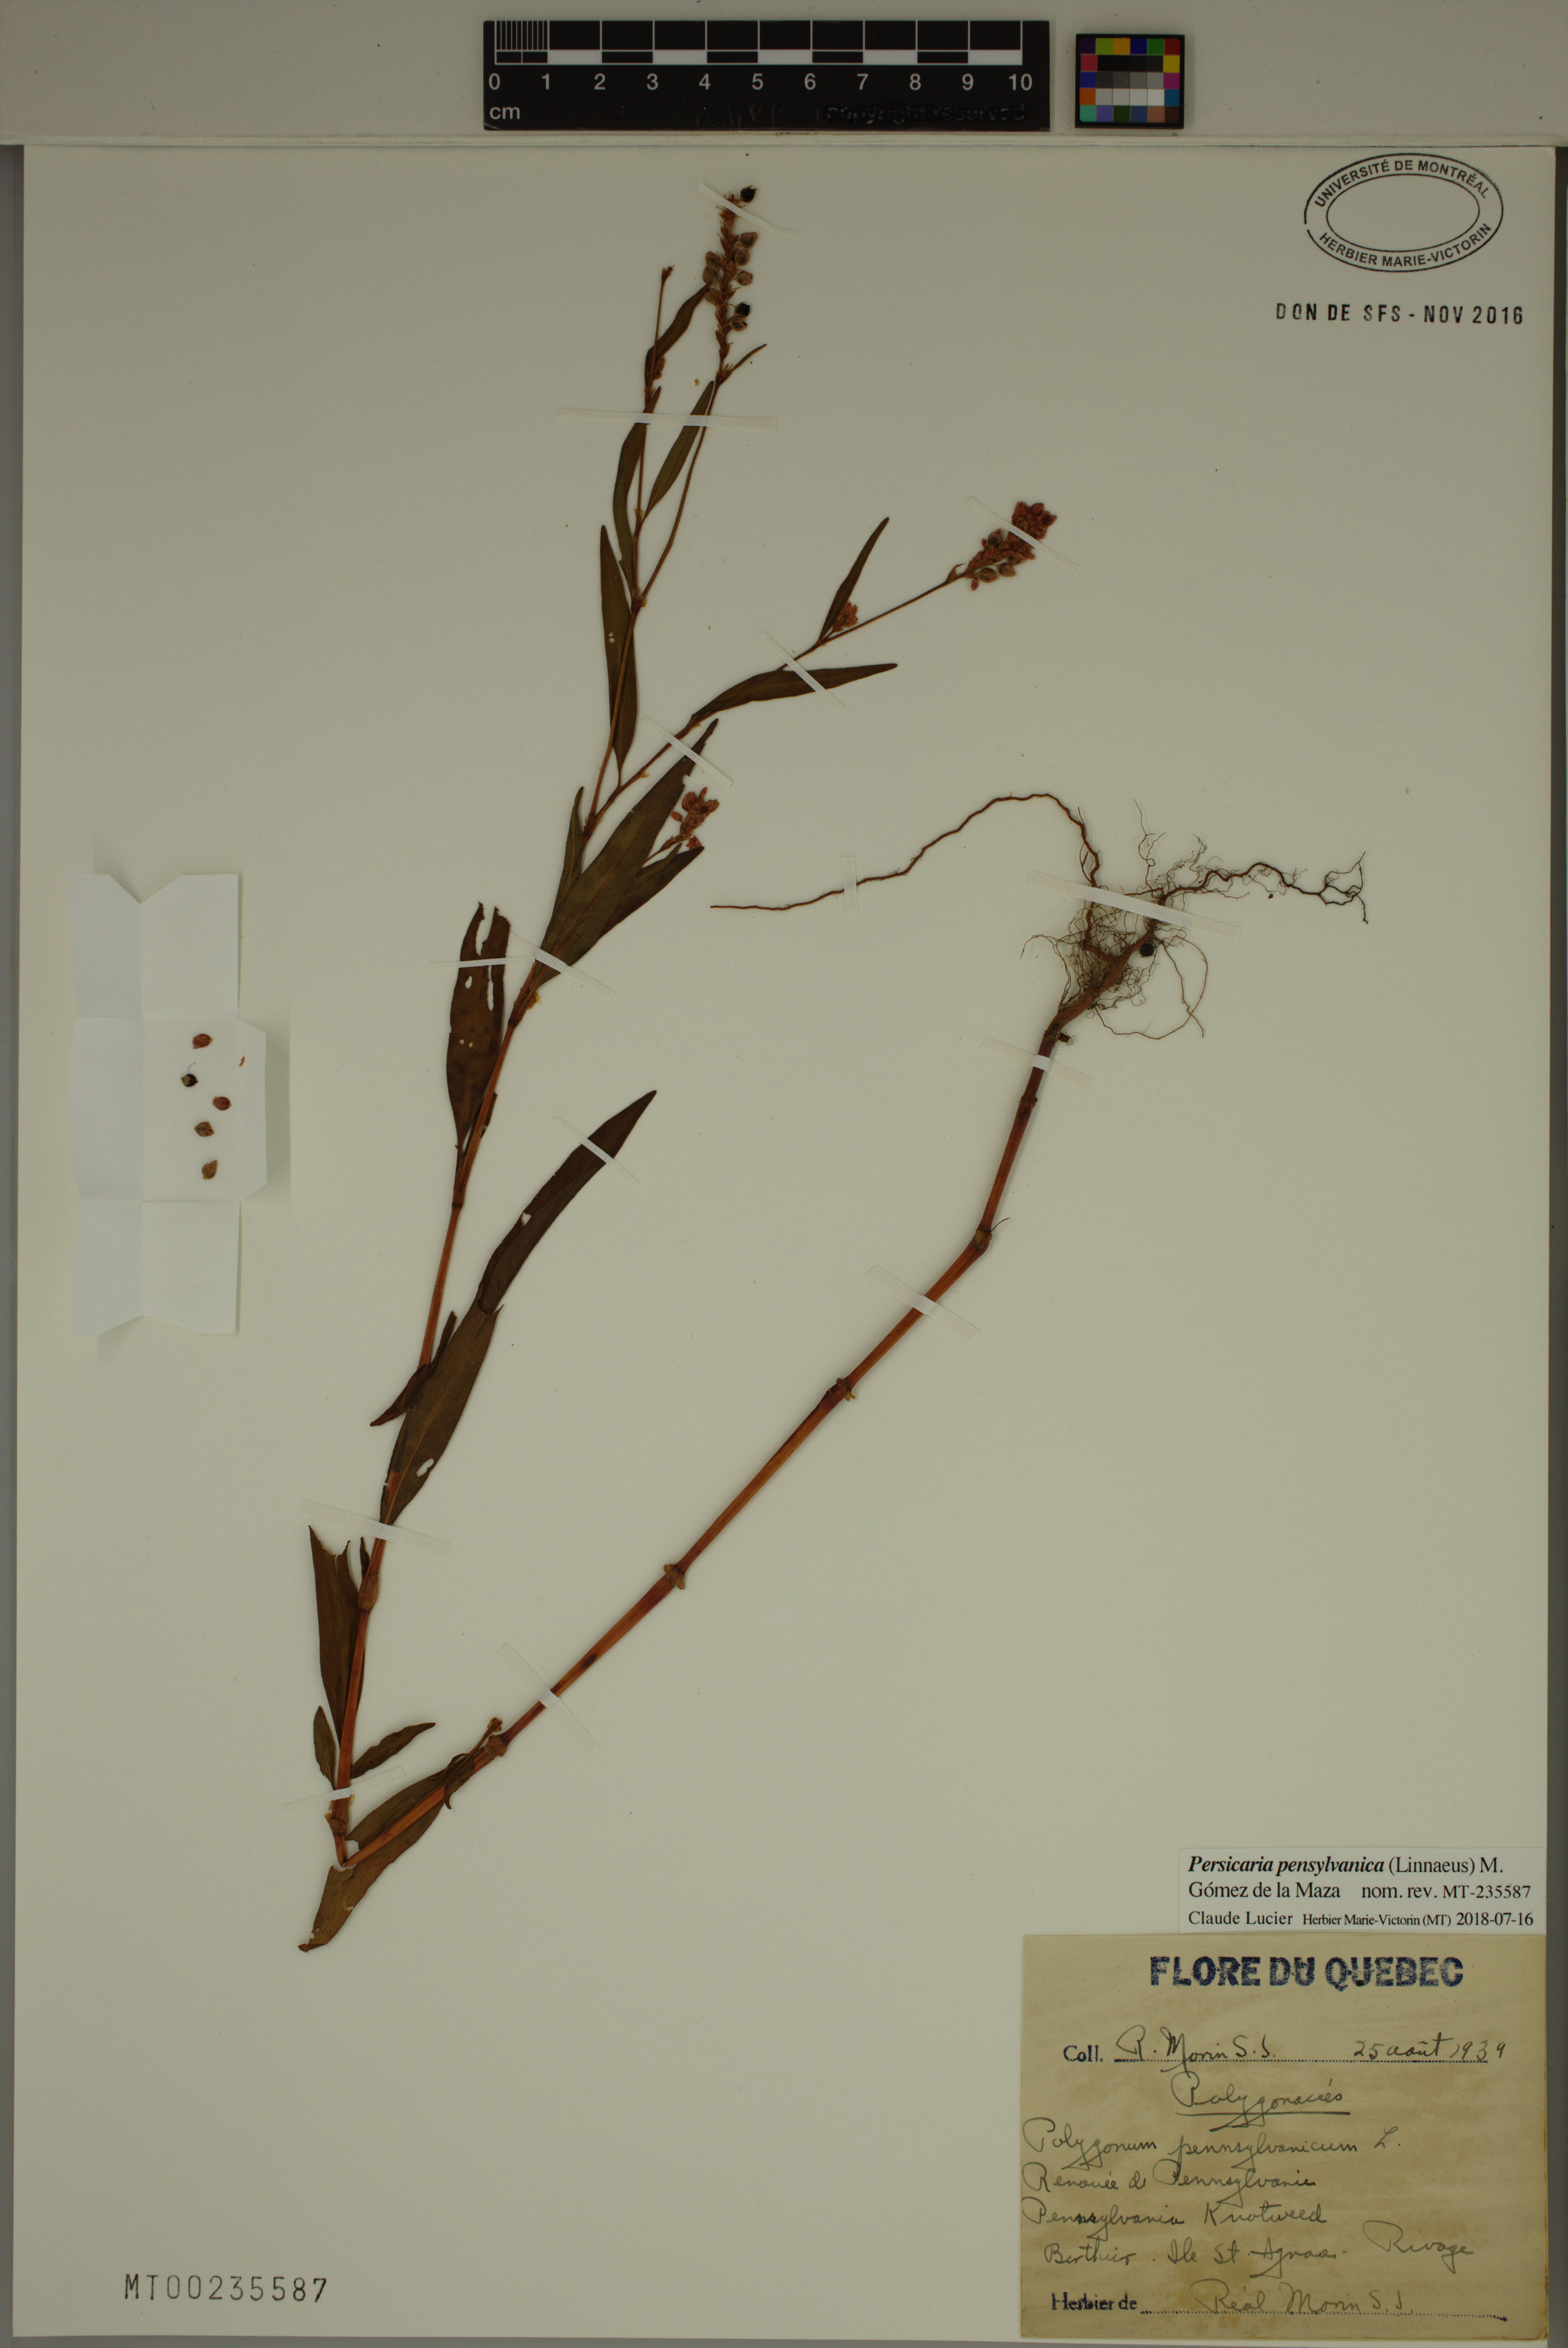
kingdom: Plantae
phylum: Tracheophyta
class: Magnoliopsida
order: Caryophyllales
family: Polygonaceae
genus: Persicaria
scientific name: Persicaria pensylvanica
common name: Pinkweed
